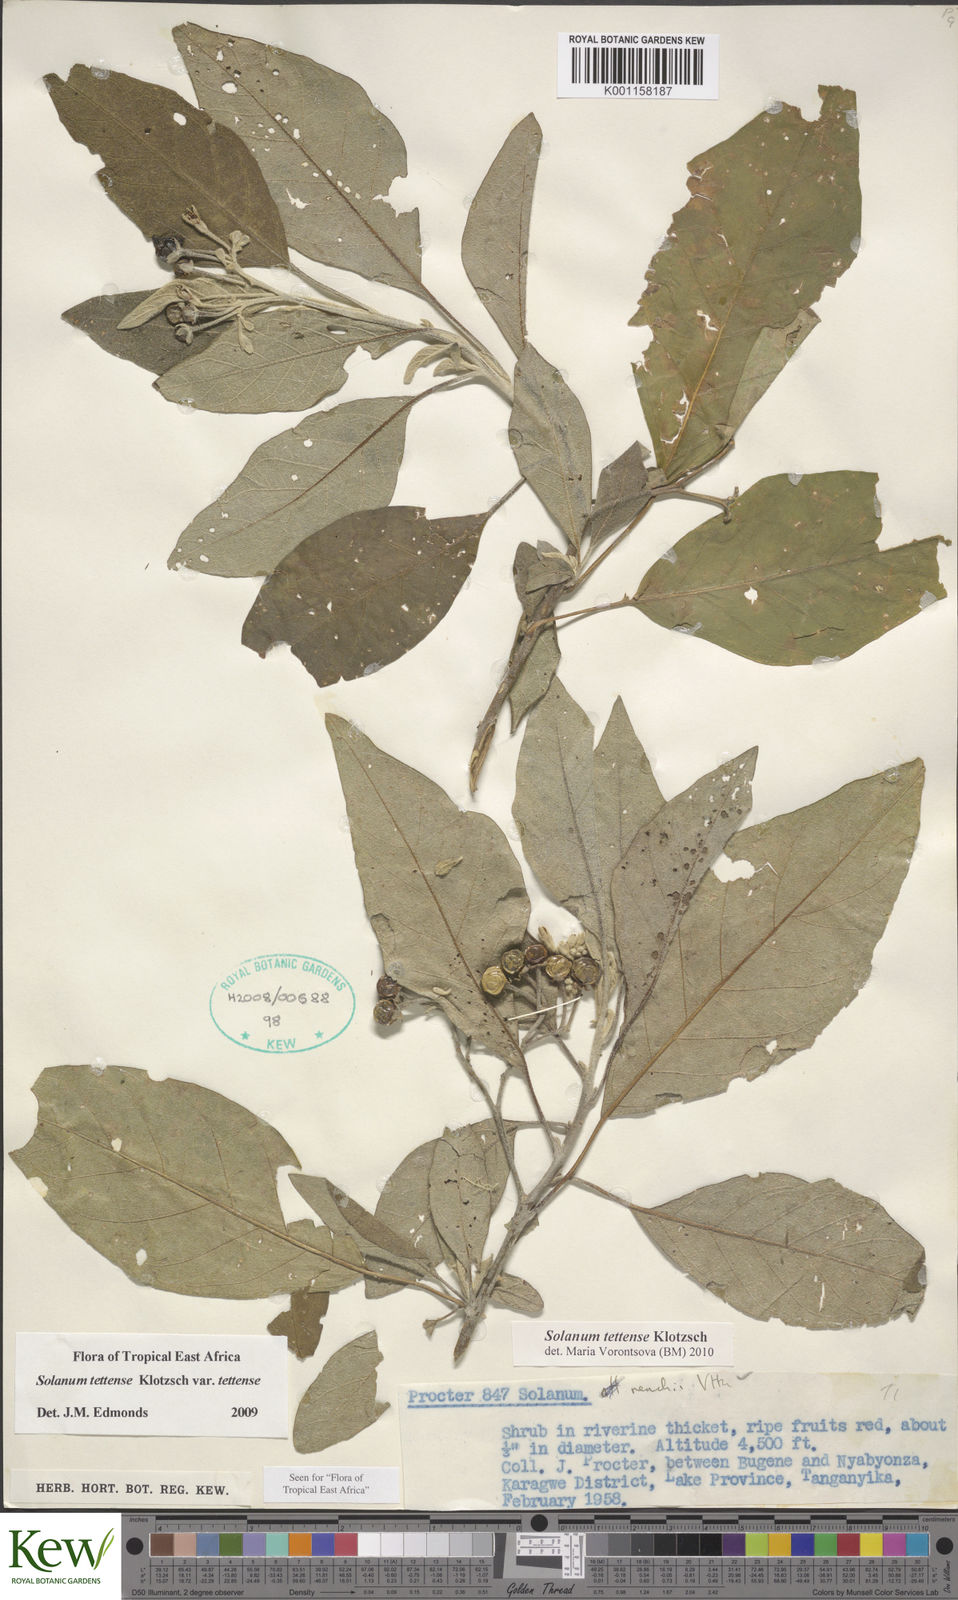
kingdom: Plantae
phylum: Tracheophyta
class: Magnoliopsida
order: Solanales
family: Solanaceae
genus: Solanum
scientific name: Solanum tettense
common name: Mozambique bitter apple
